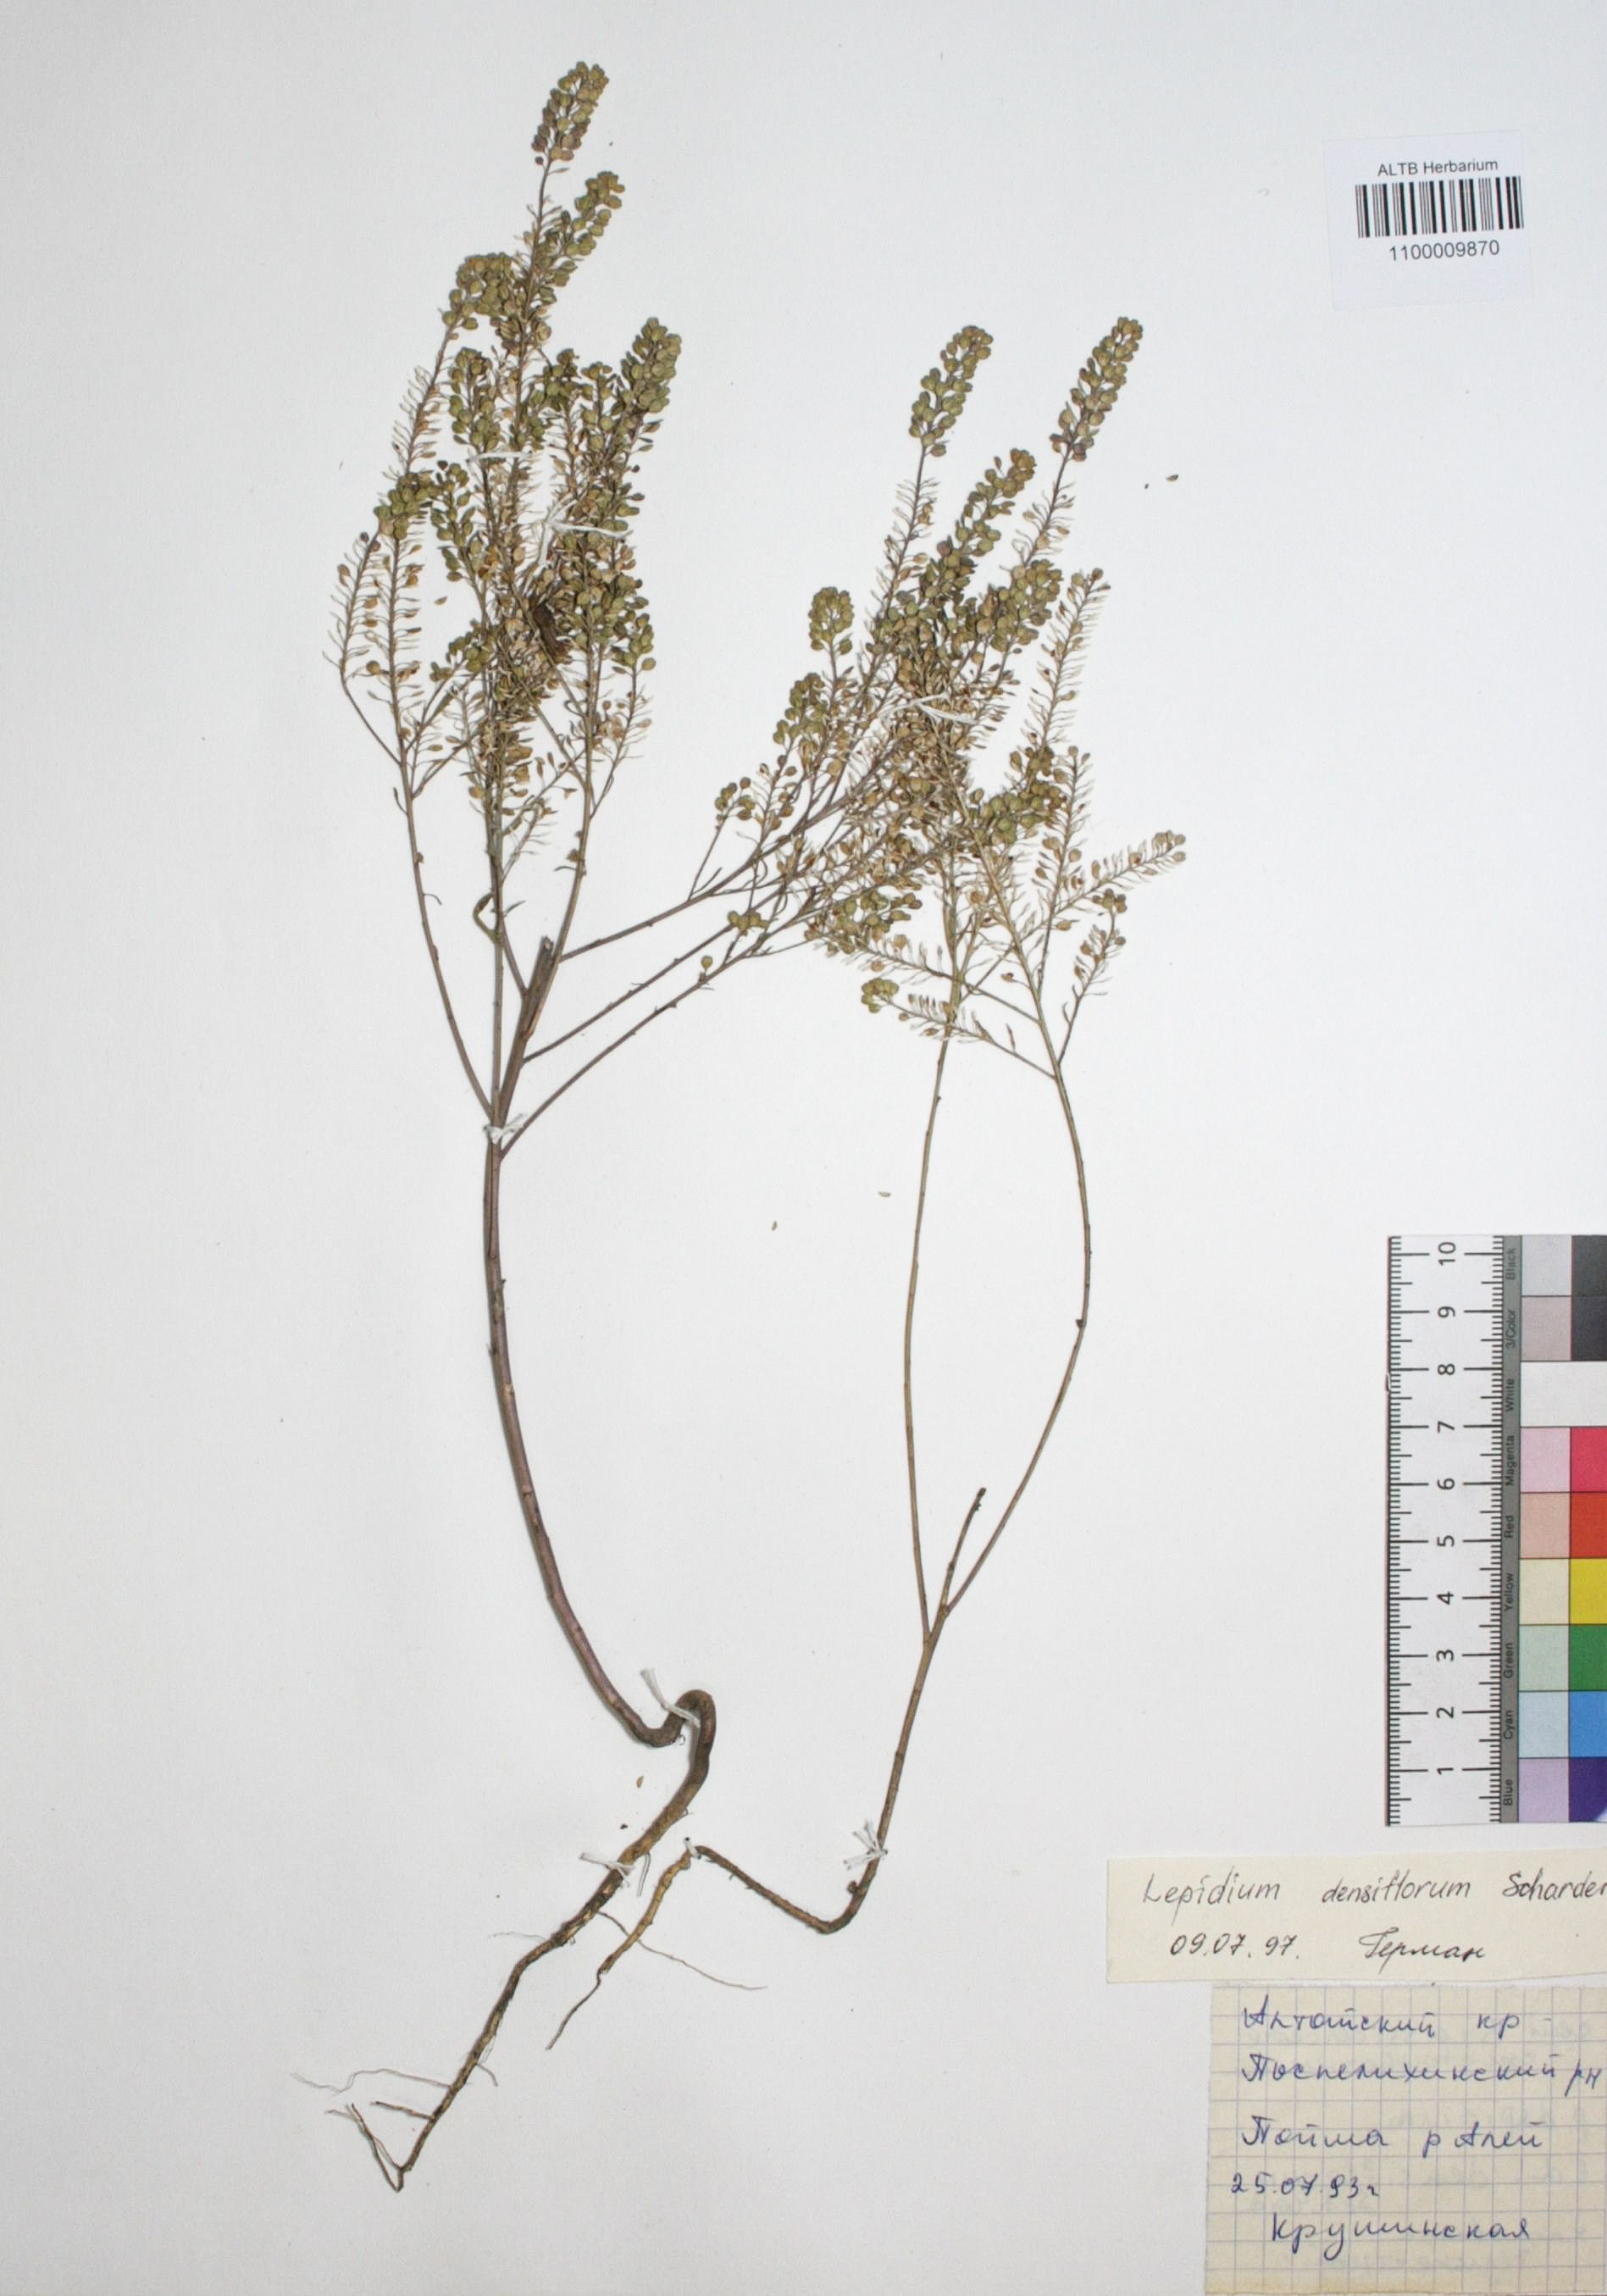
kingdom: Plantae
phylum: Tracheophyta
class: Magnoliopsida
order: Brassicales
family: Brassicaceae
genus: Lepidium
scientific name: Lepidium densiflorum
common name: Miner's pepperwort
